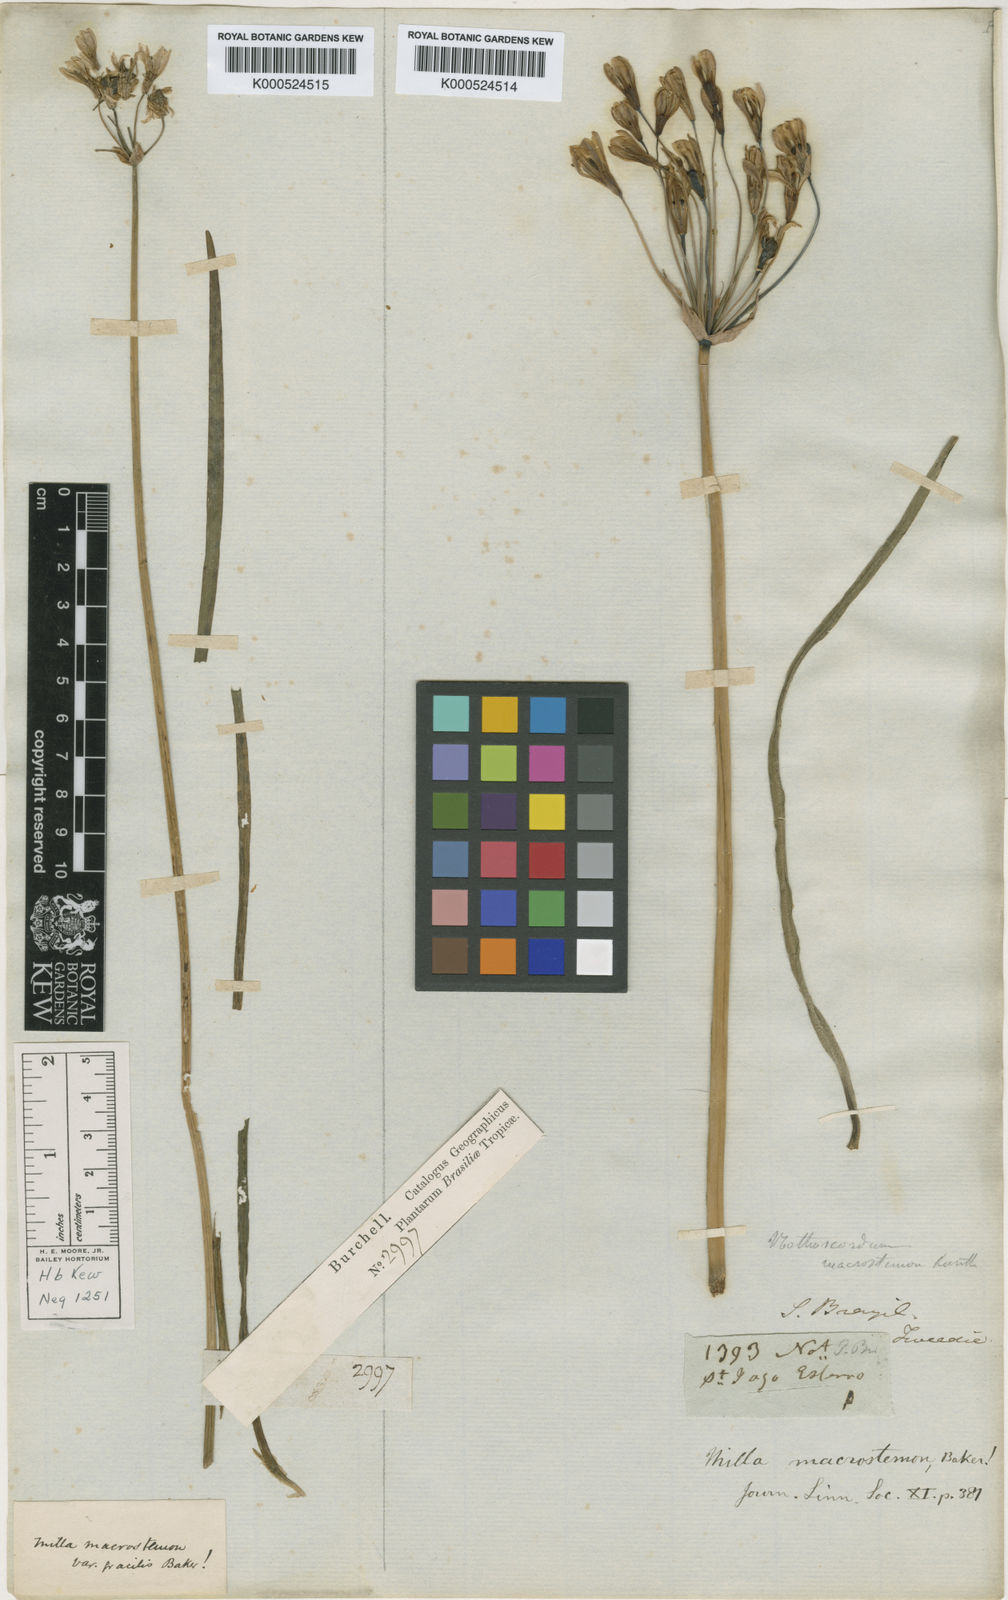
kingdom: Plantae
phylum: Tracheophyta
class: Liliopsida
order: Asparagales
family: Amaryllidaceae
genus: Nothoscordum
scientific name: Nothoscordum gracile
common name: Slender false garlic
